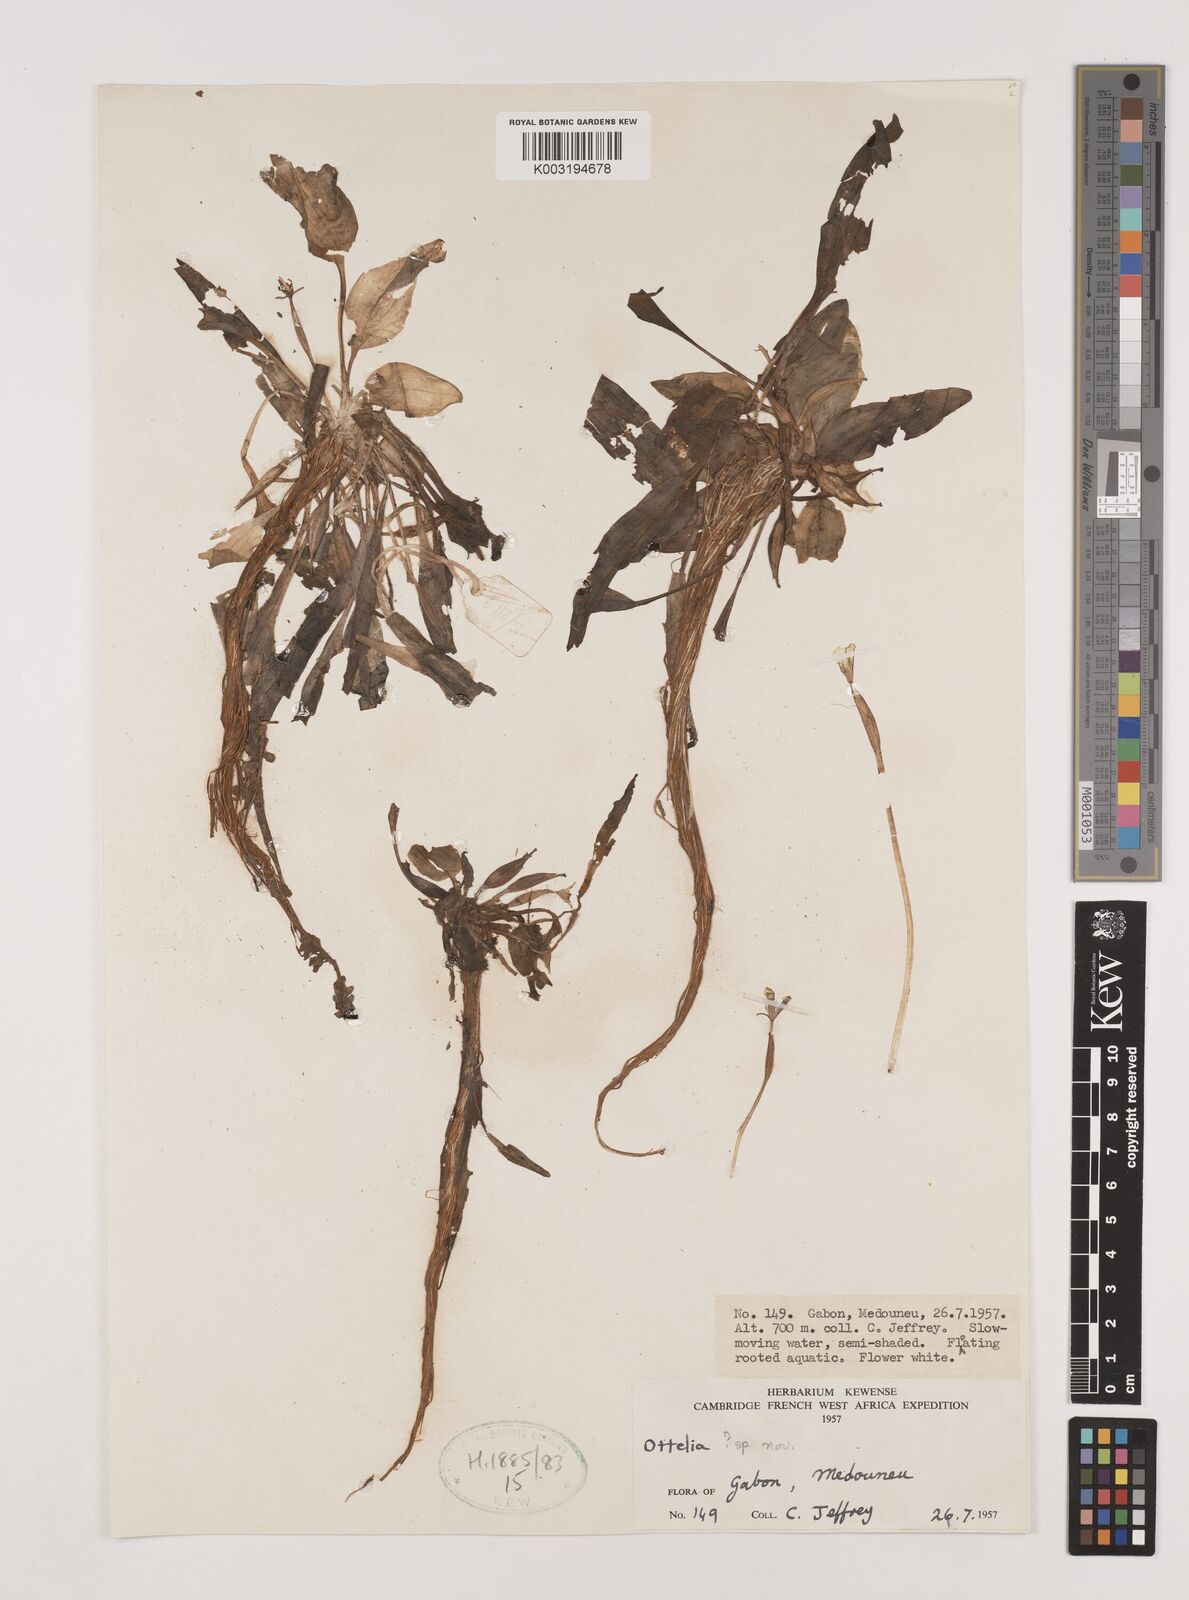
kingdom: Plantae
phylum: Tracheophyta
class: Liliopsida
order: Alismatales
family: Butomaceae
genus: Butomus
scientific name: Butomus
